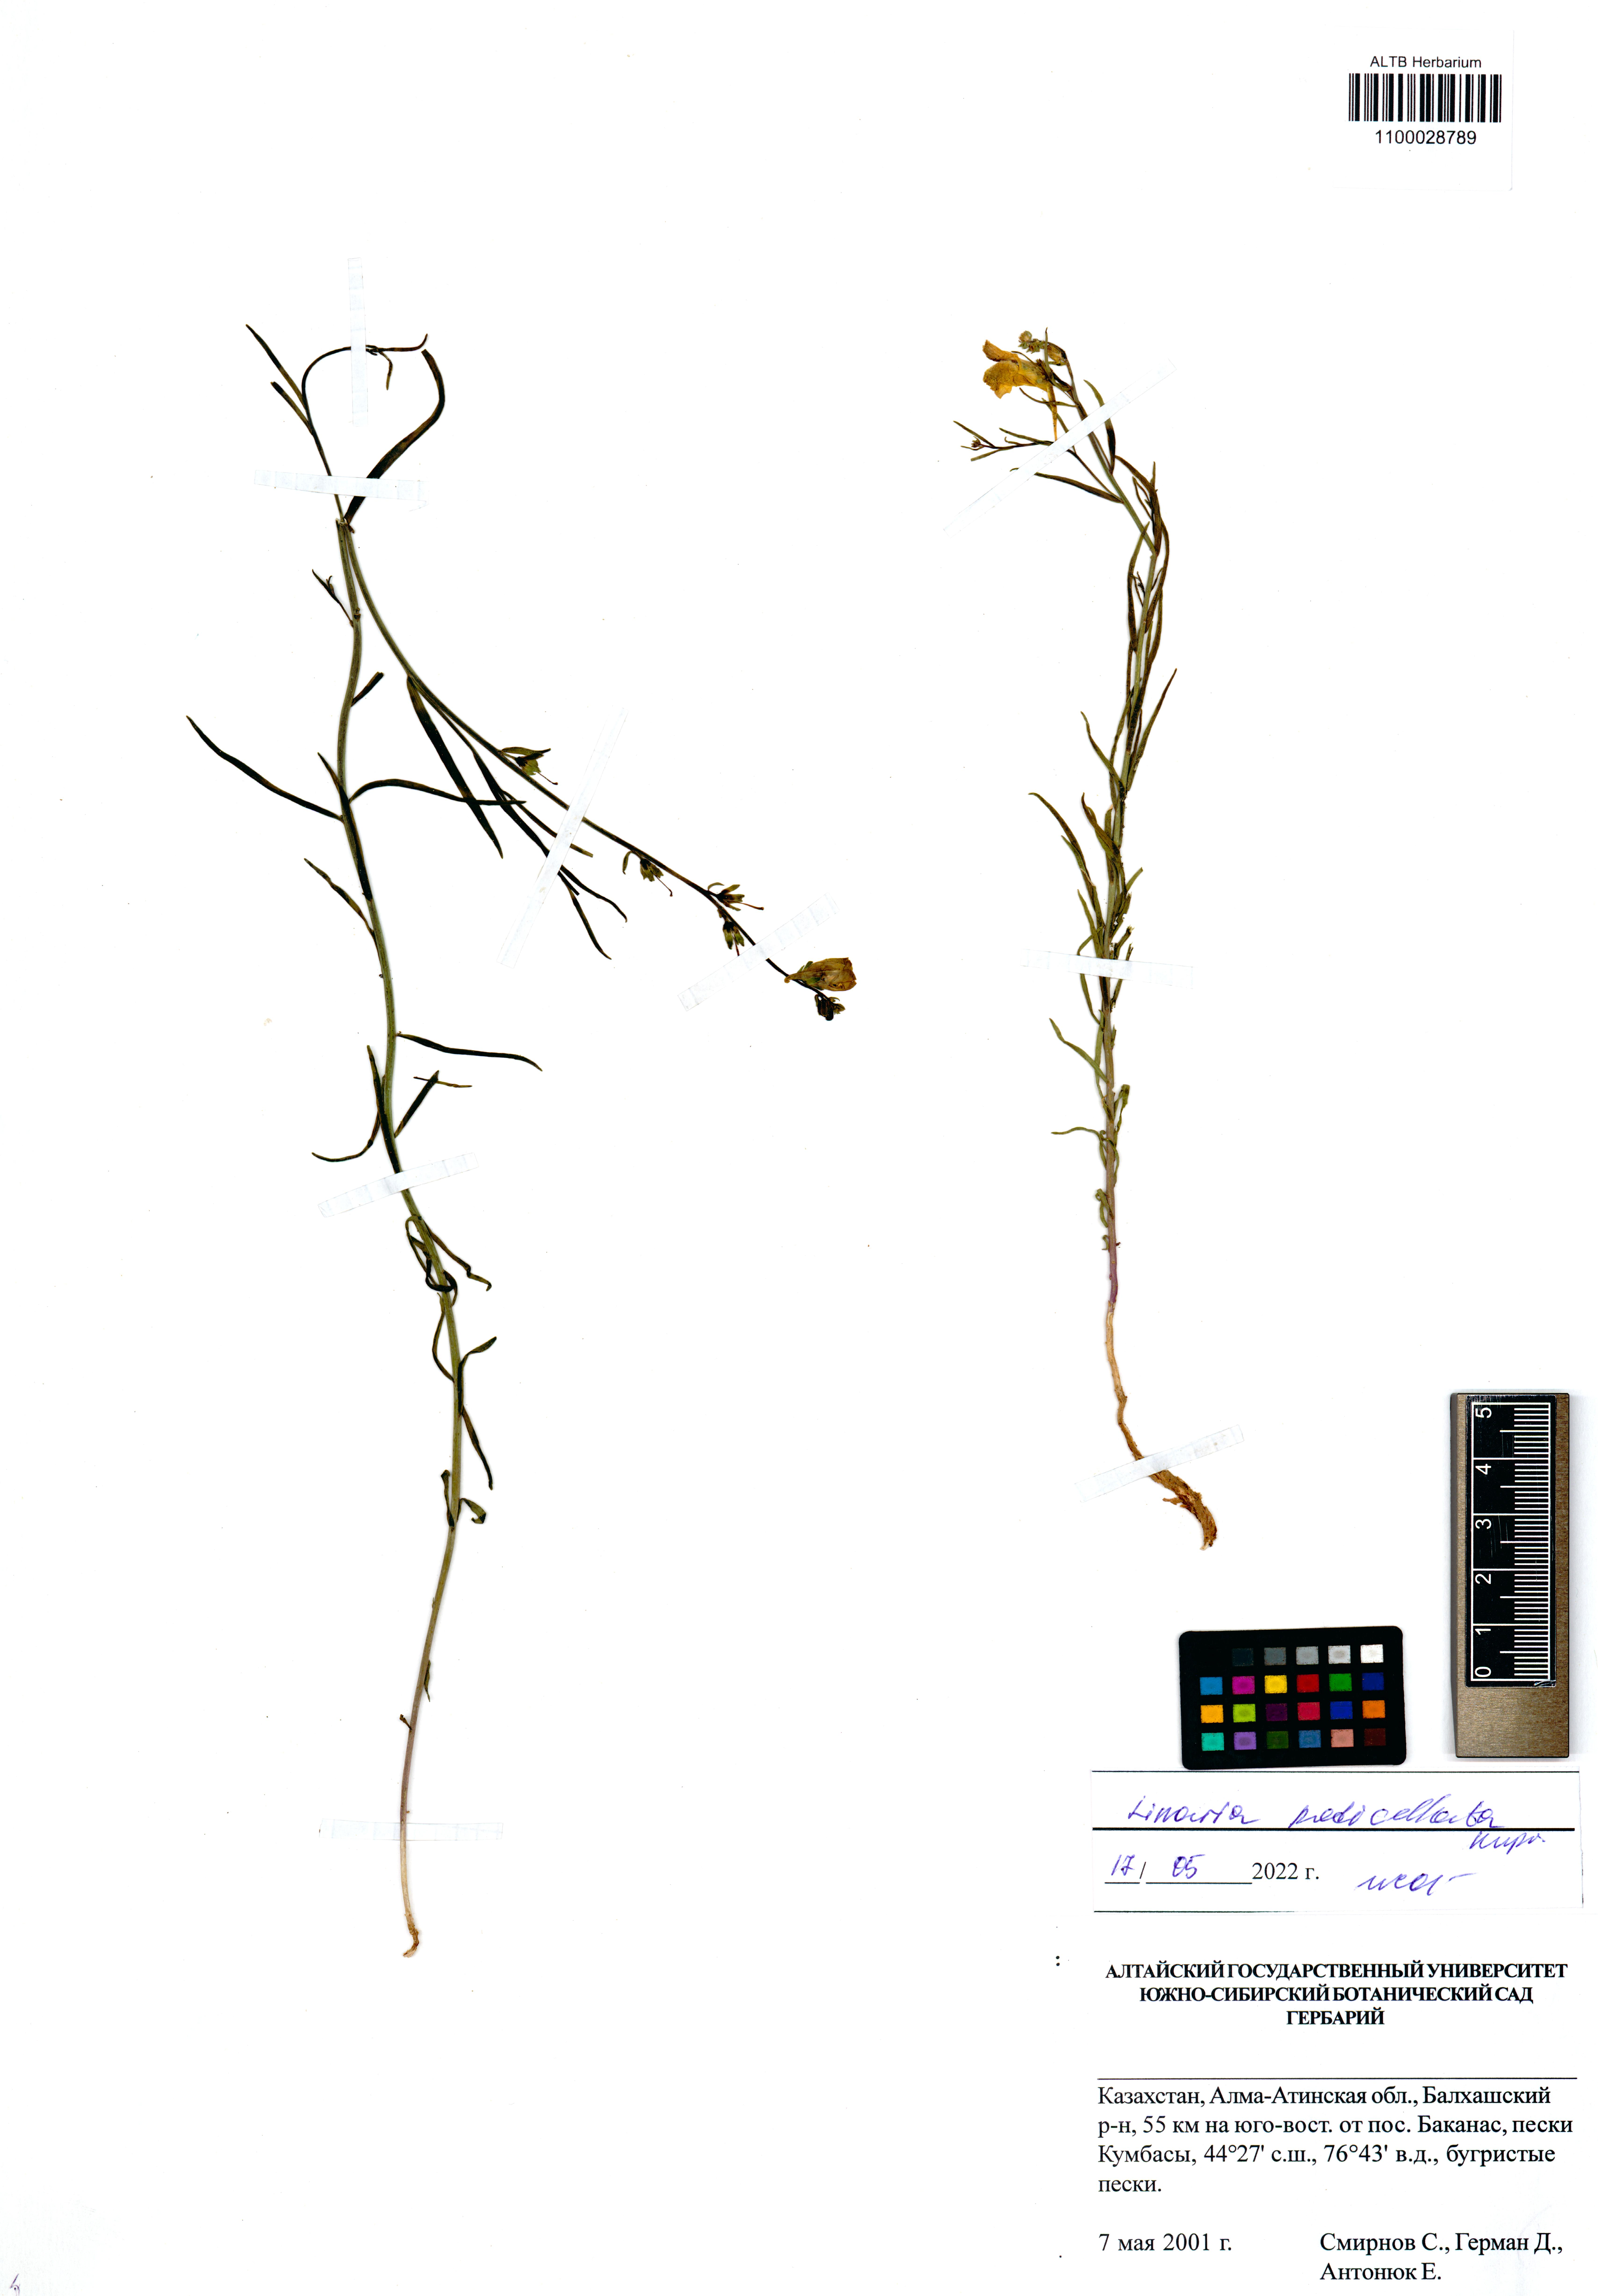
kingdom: Plantae
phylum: Tracheophyta
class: Magnoliopsida
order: Lamiales
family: Plantaginaceae
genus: Linaria
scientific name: Linaria pedicellata
